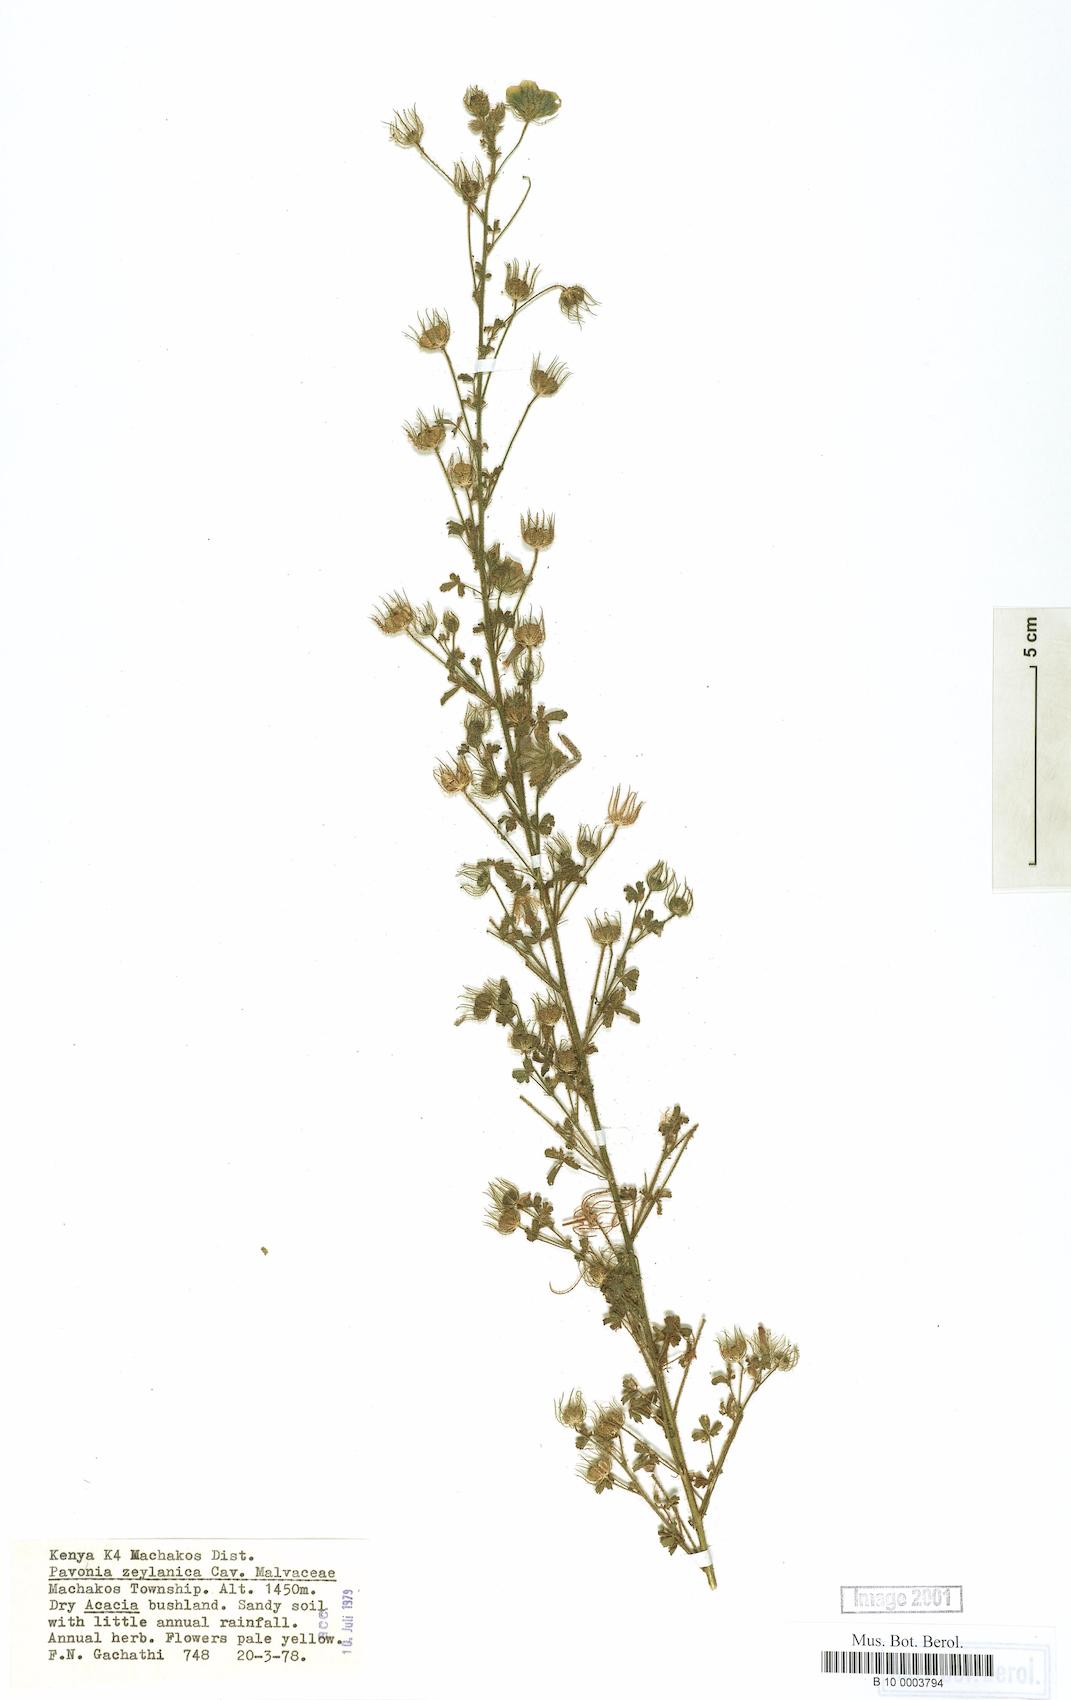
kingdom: Plantae
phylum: Tracheophyta
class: Magnoliopsida
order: Malvales
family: Malvaceae
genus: Pavonia
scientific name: Pavonia zeylanica
